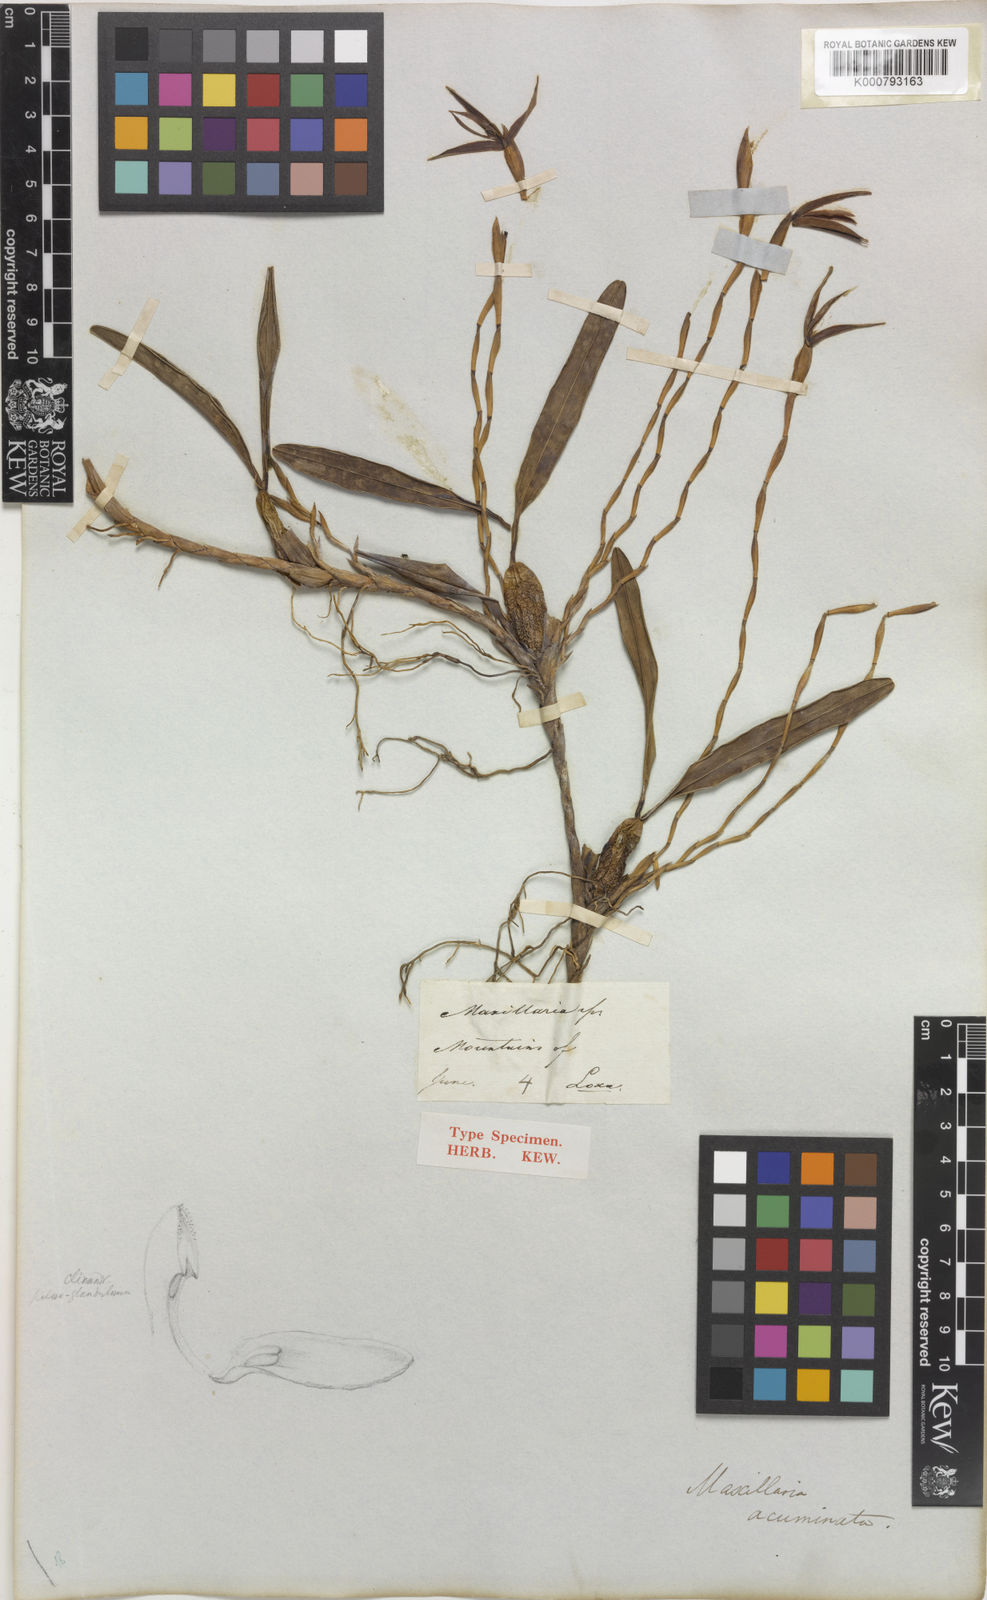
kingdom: Plantae
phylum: Tracheophyta
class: Liliopsida
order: Asparagales
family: Orchidaceae
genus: Maxillaria
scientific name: Maxillaria acuminata
